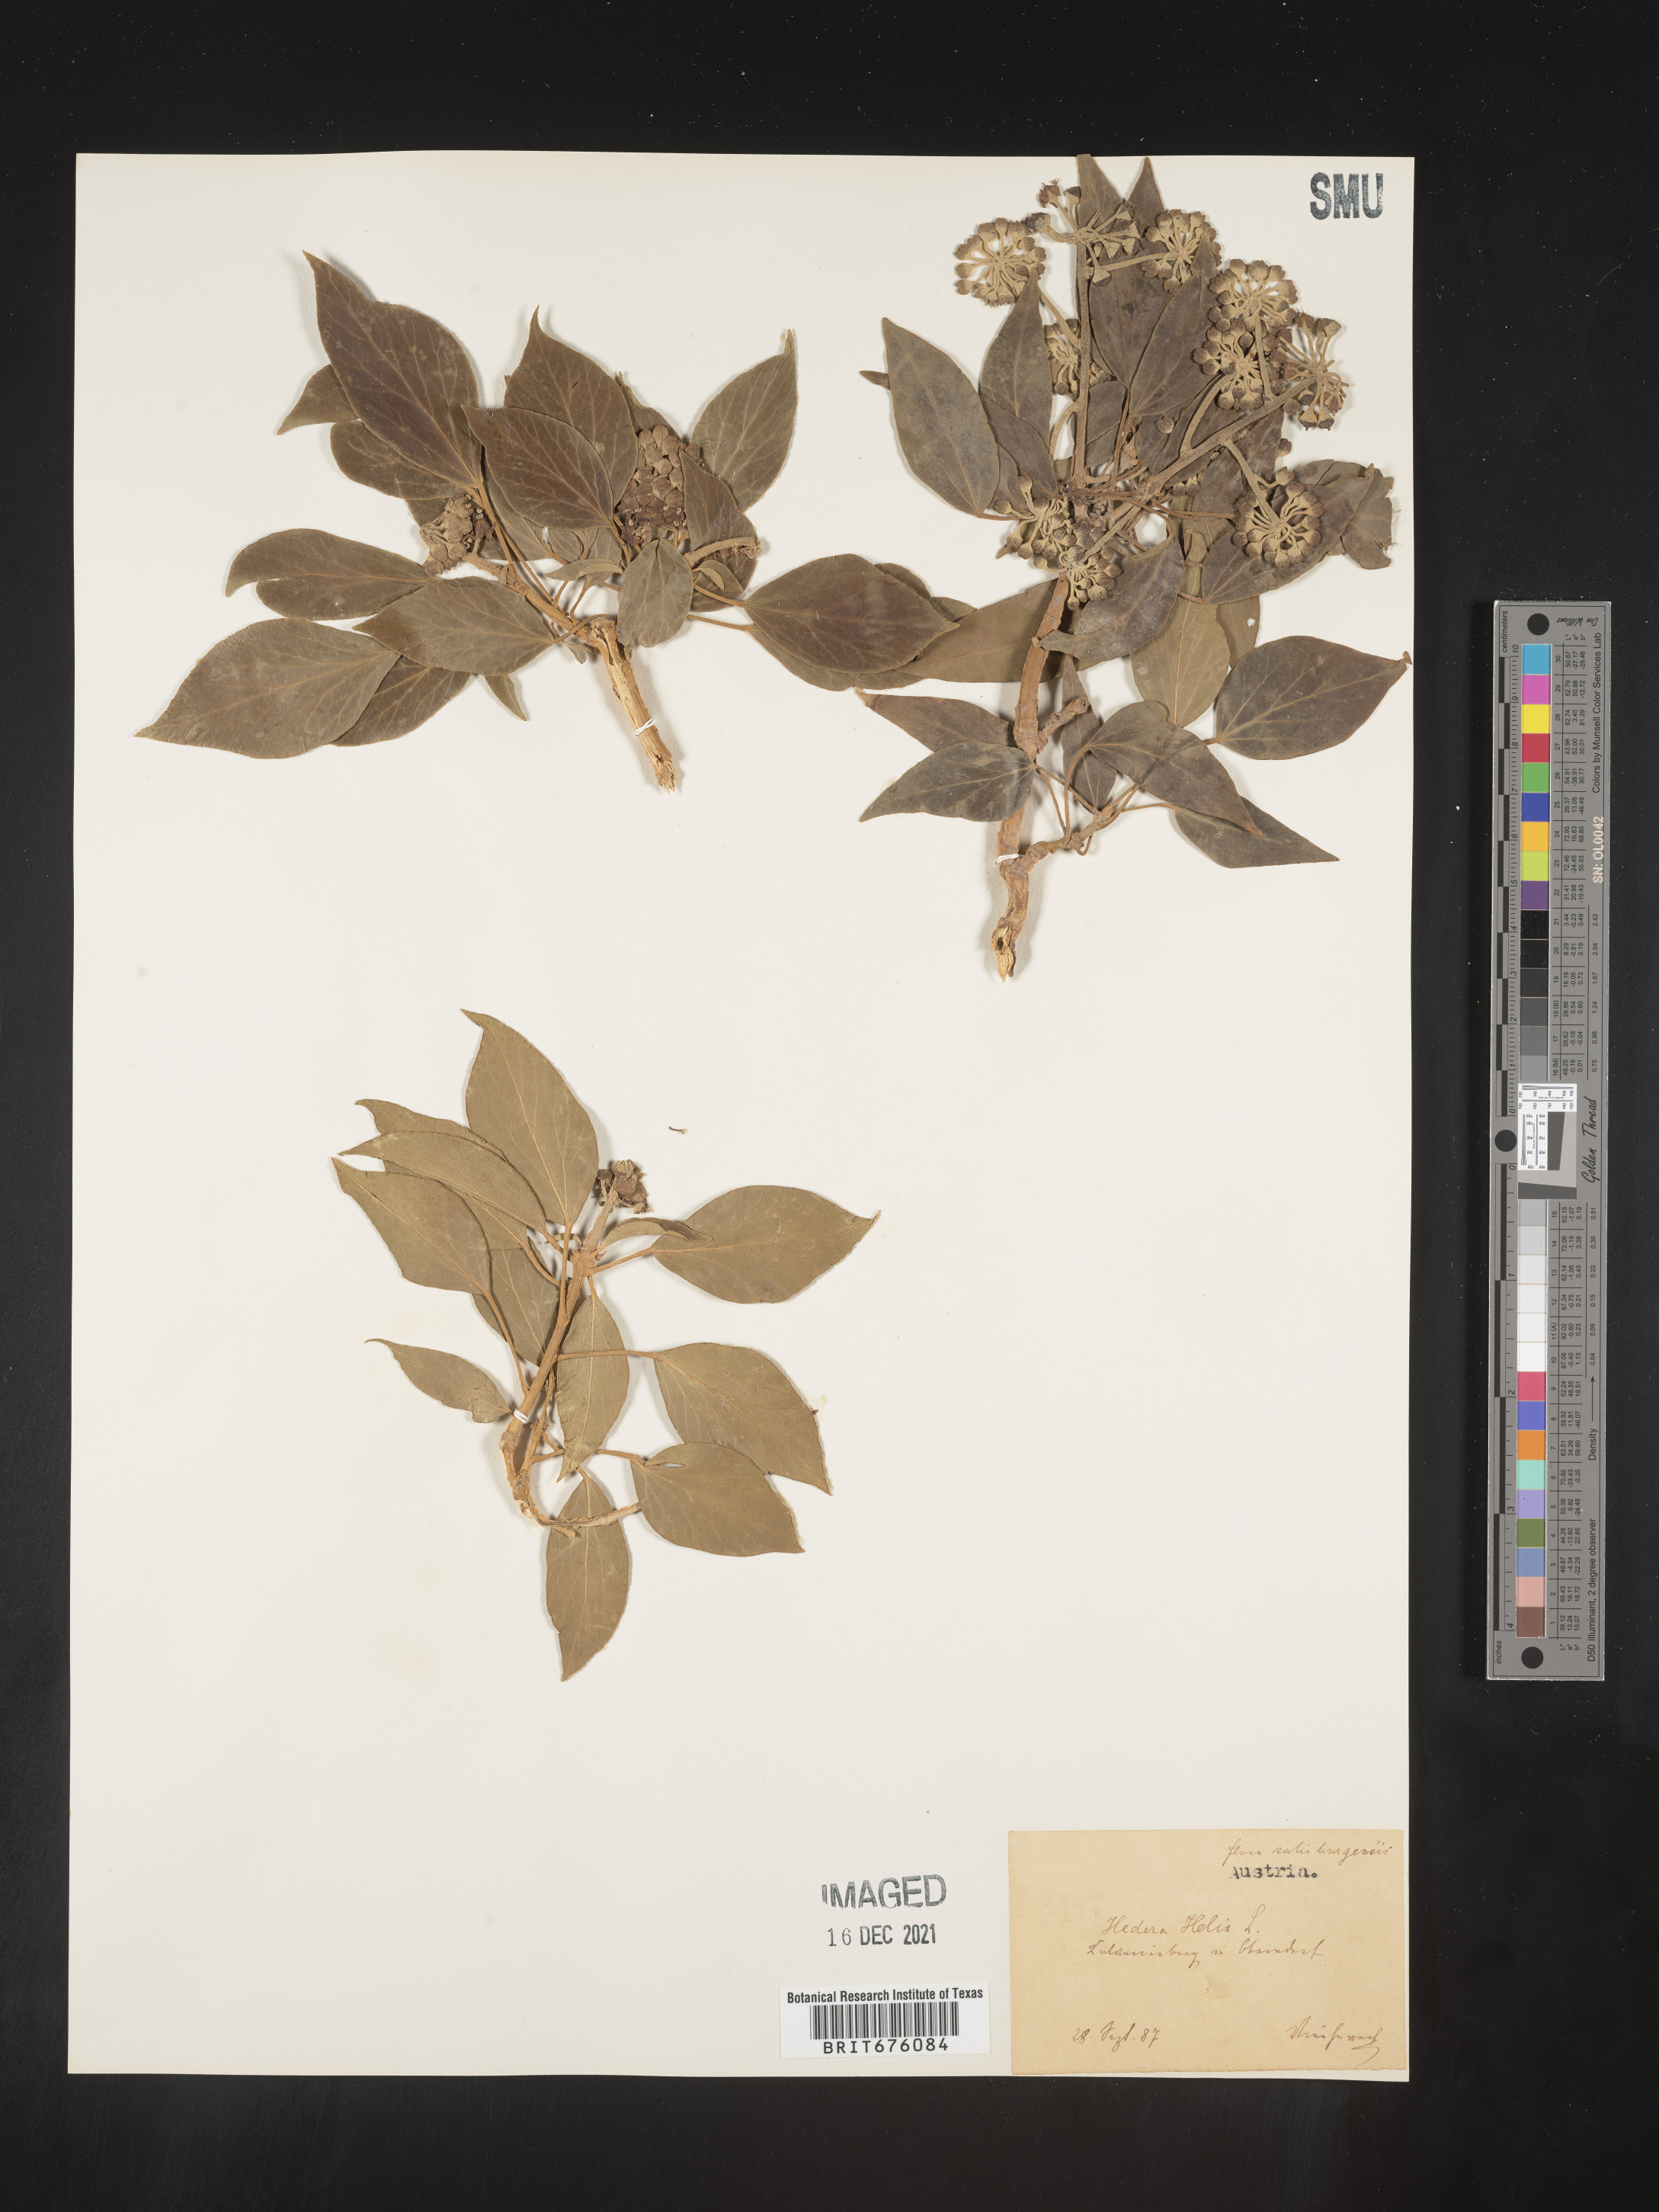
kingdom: Plantae
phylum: Tracheophyta
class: Magnoliopsida
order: Apiales
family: Araliaceae
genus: Hedera
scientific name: Hedera
